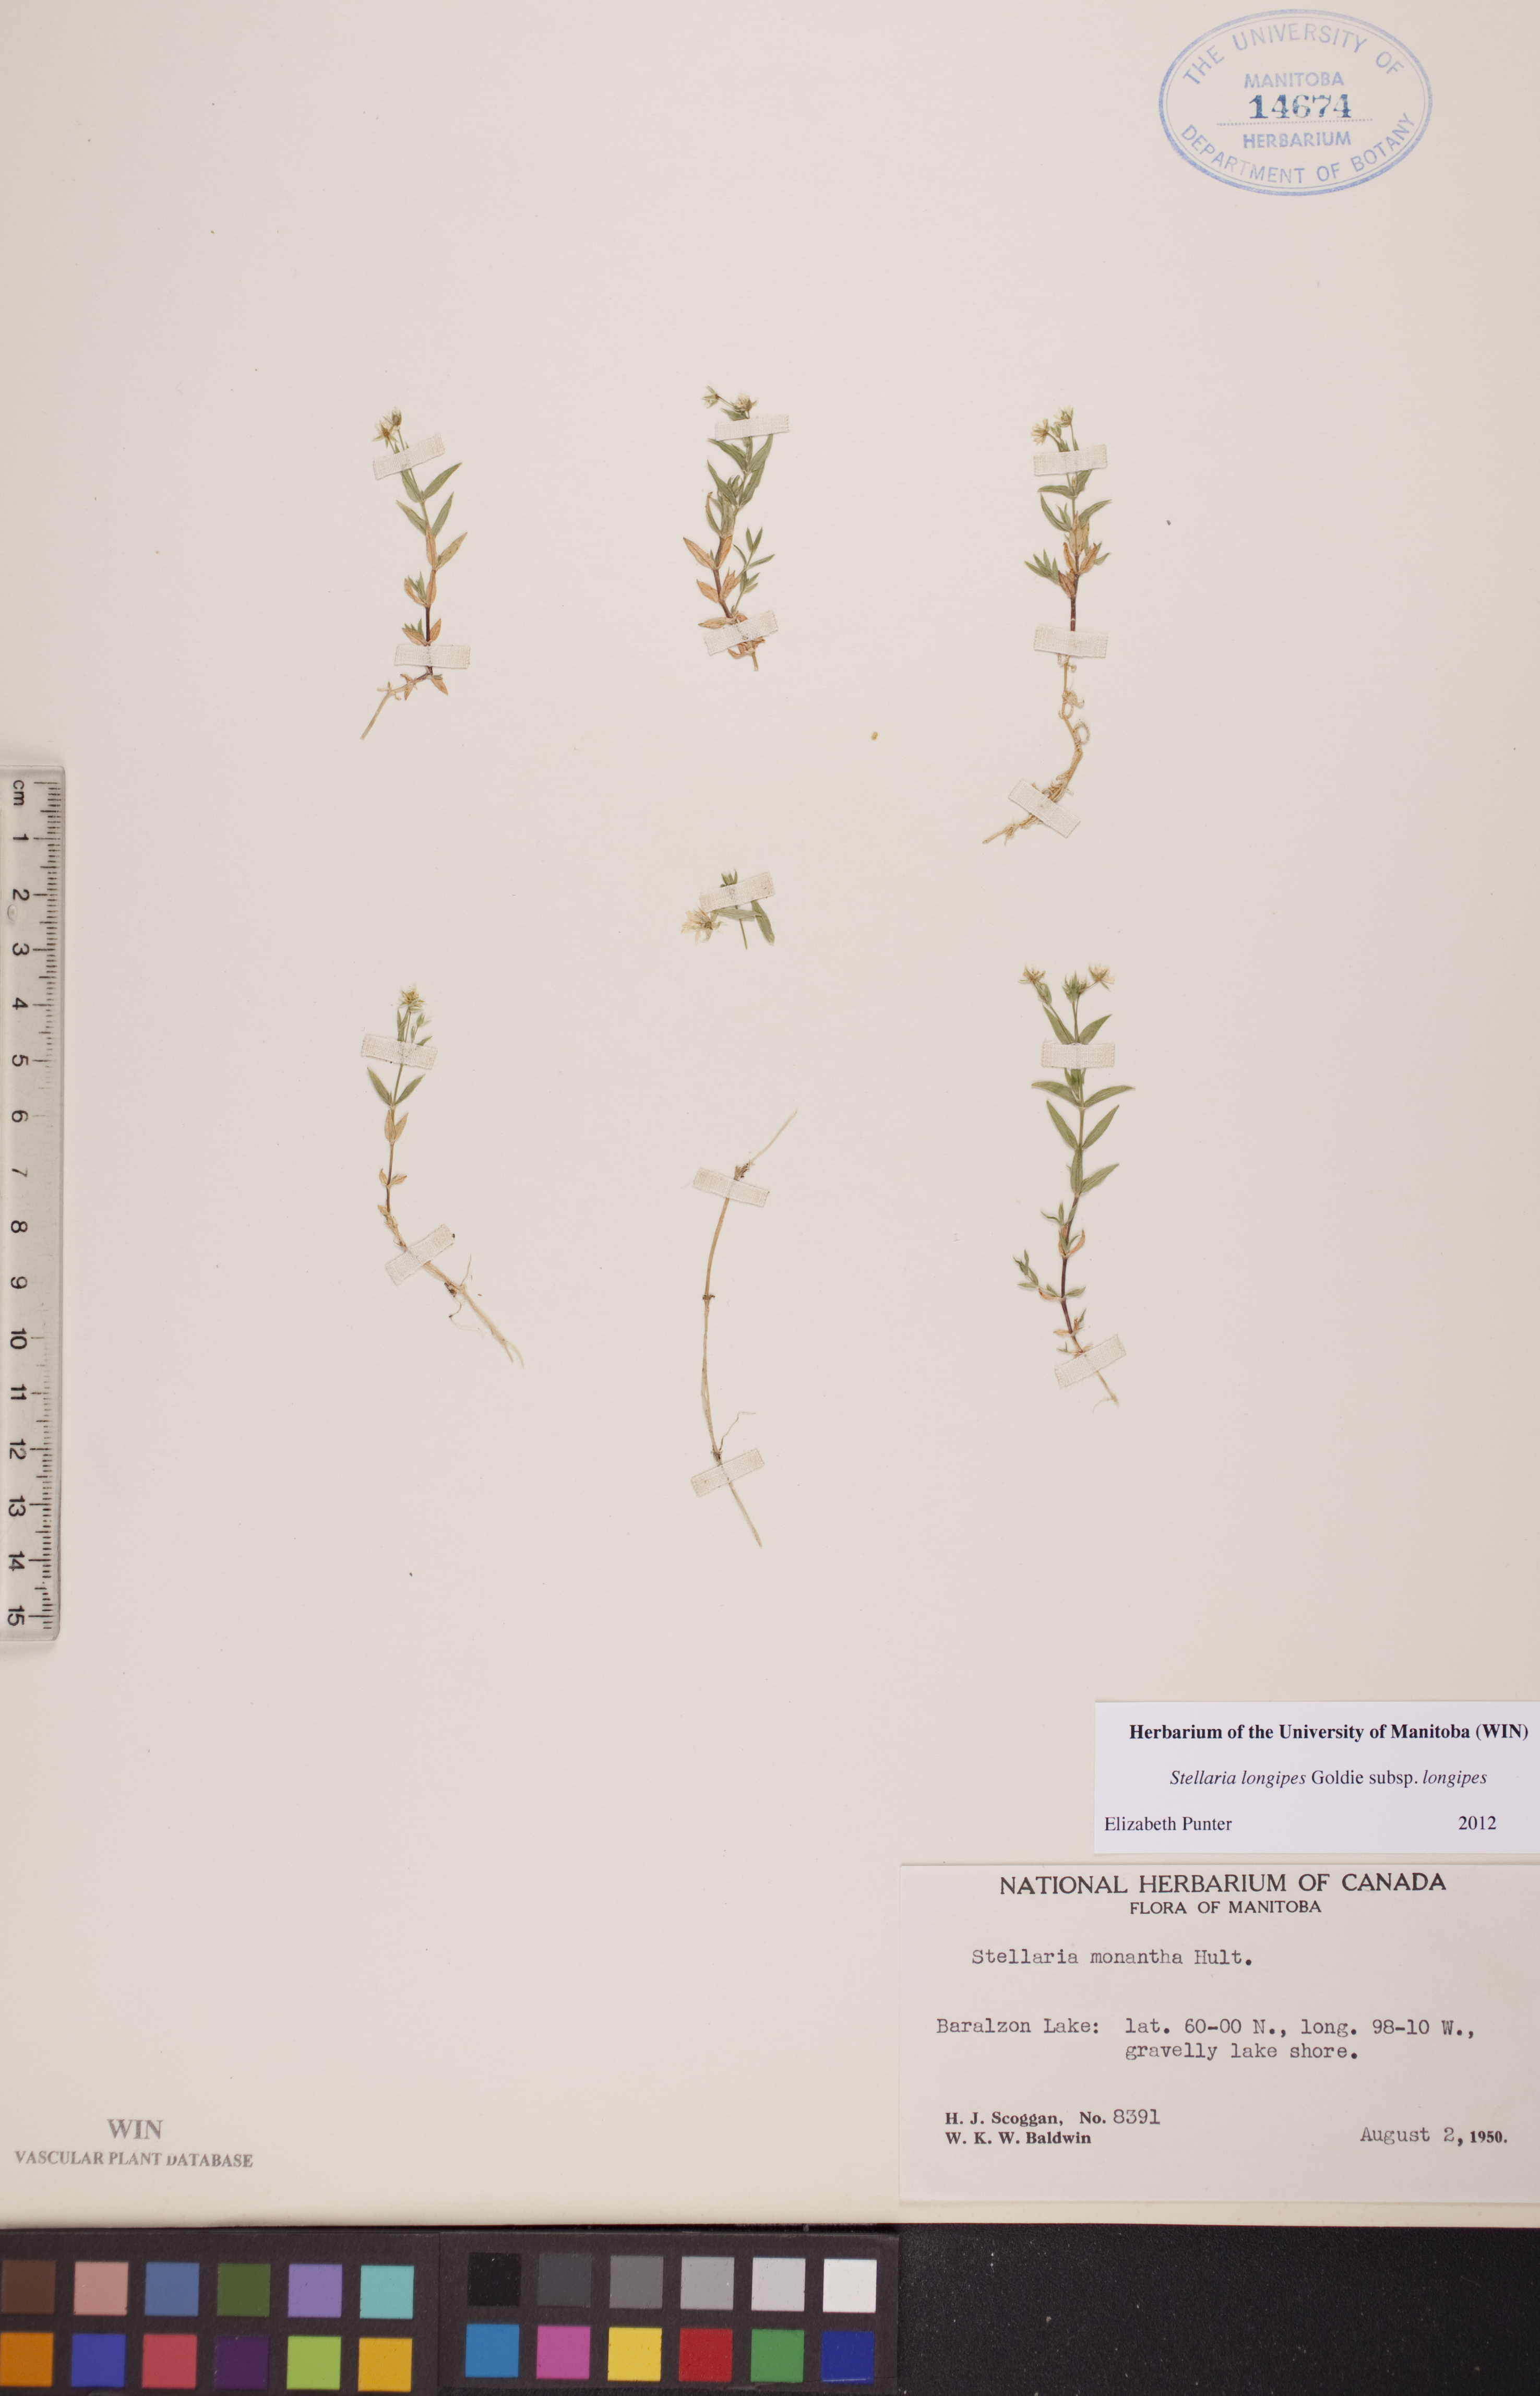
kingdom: Plantae
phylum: Tracheophyta
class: Magnoliopsida
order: Caryophyllales
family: Caryophyllaceae
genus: Stellaria
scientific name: Stellaria longipes
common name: Goldie's starwort
